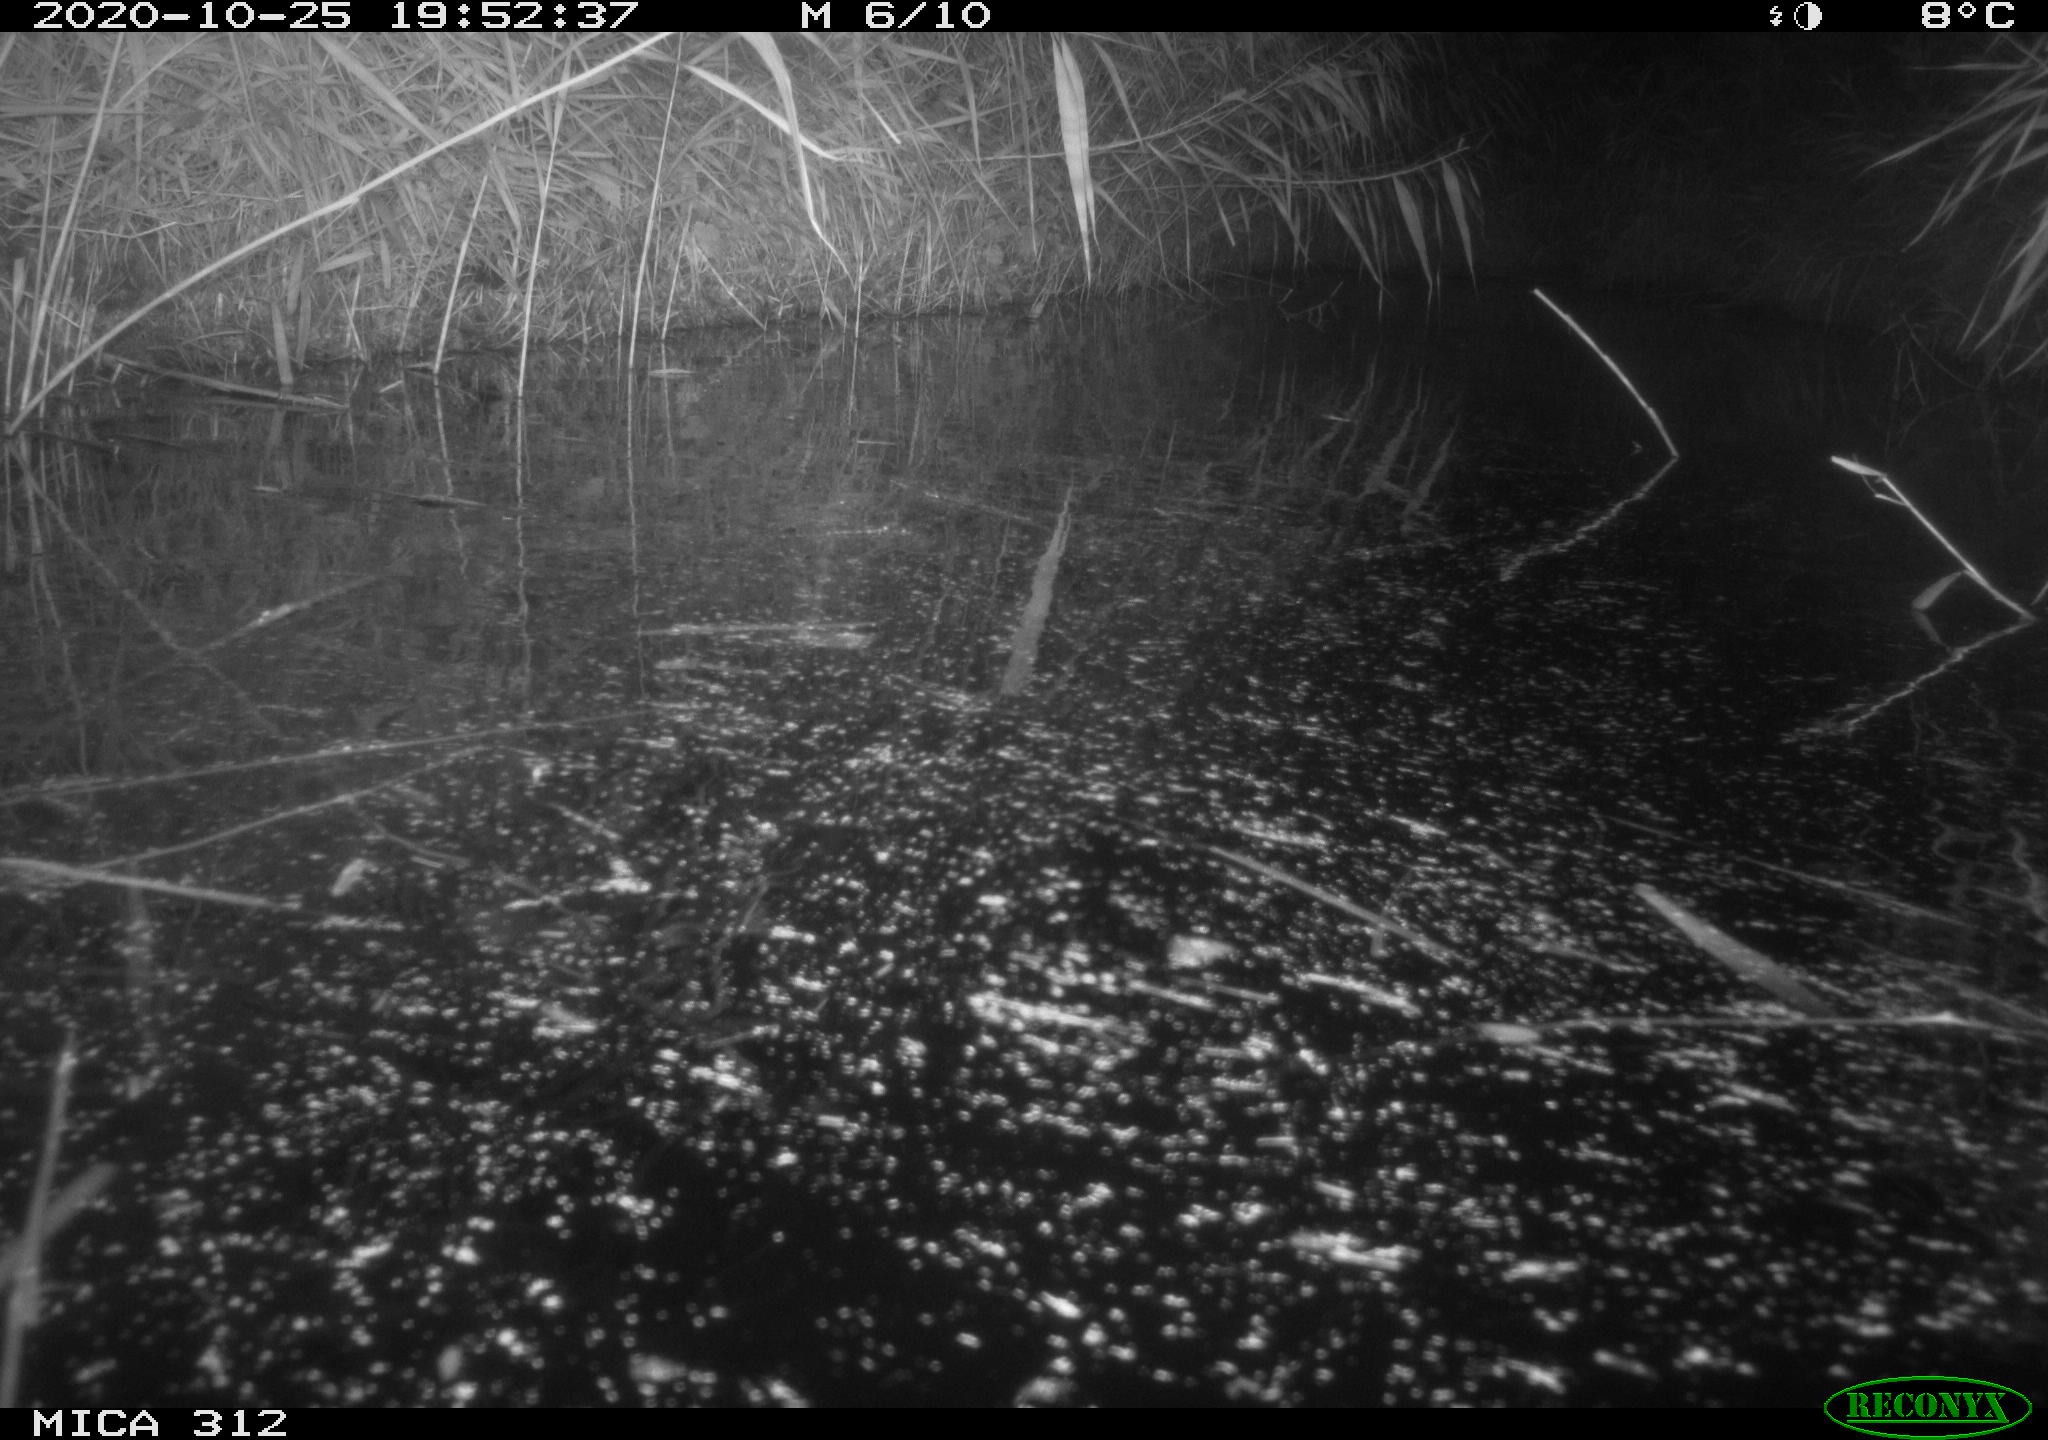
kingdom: Animalia
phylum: Chordata
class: Mammalia
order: Rodentia
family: Muridae
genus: Rattus
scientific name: Rattus norvegicus
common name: Brown rat
